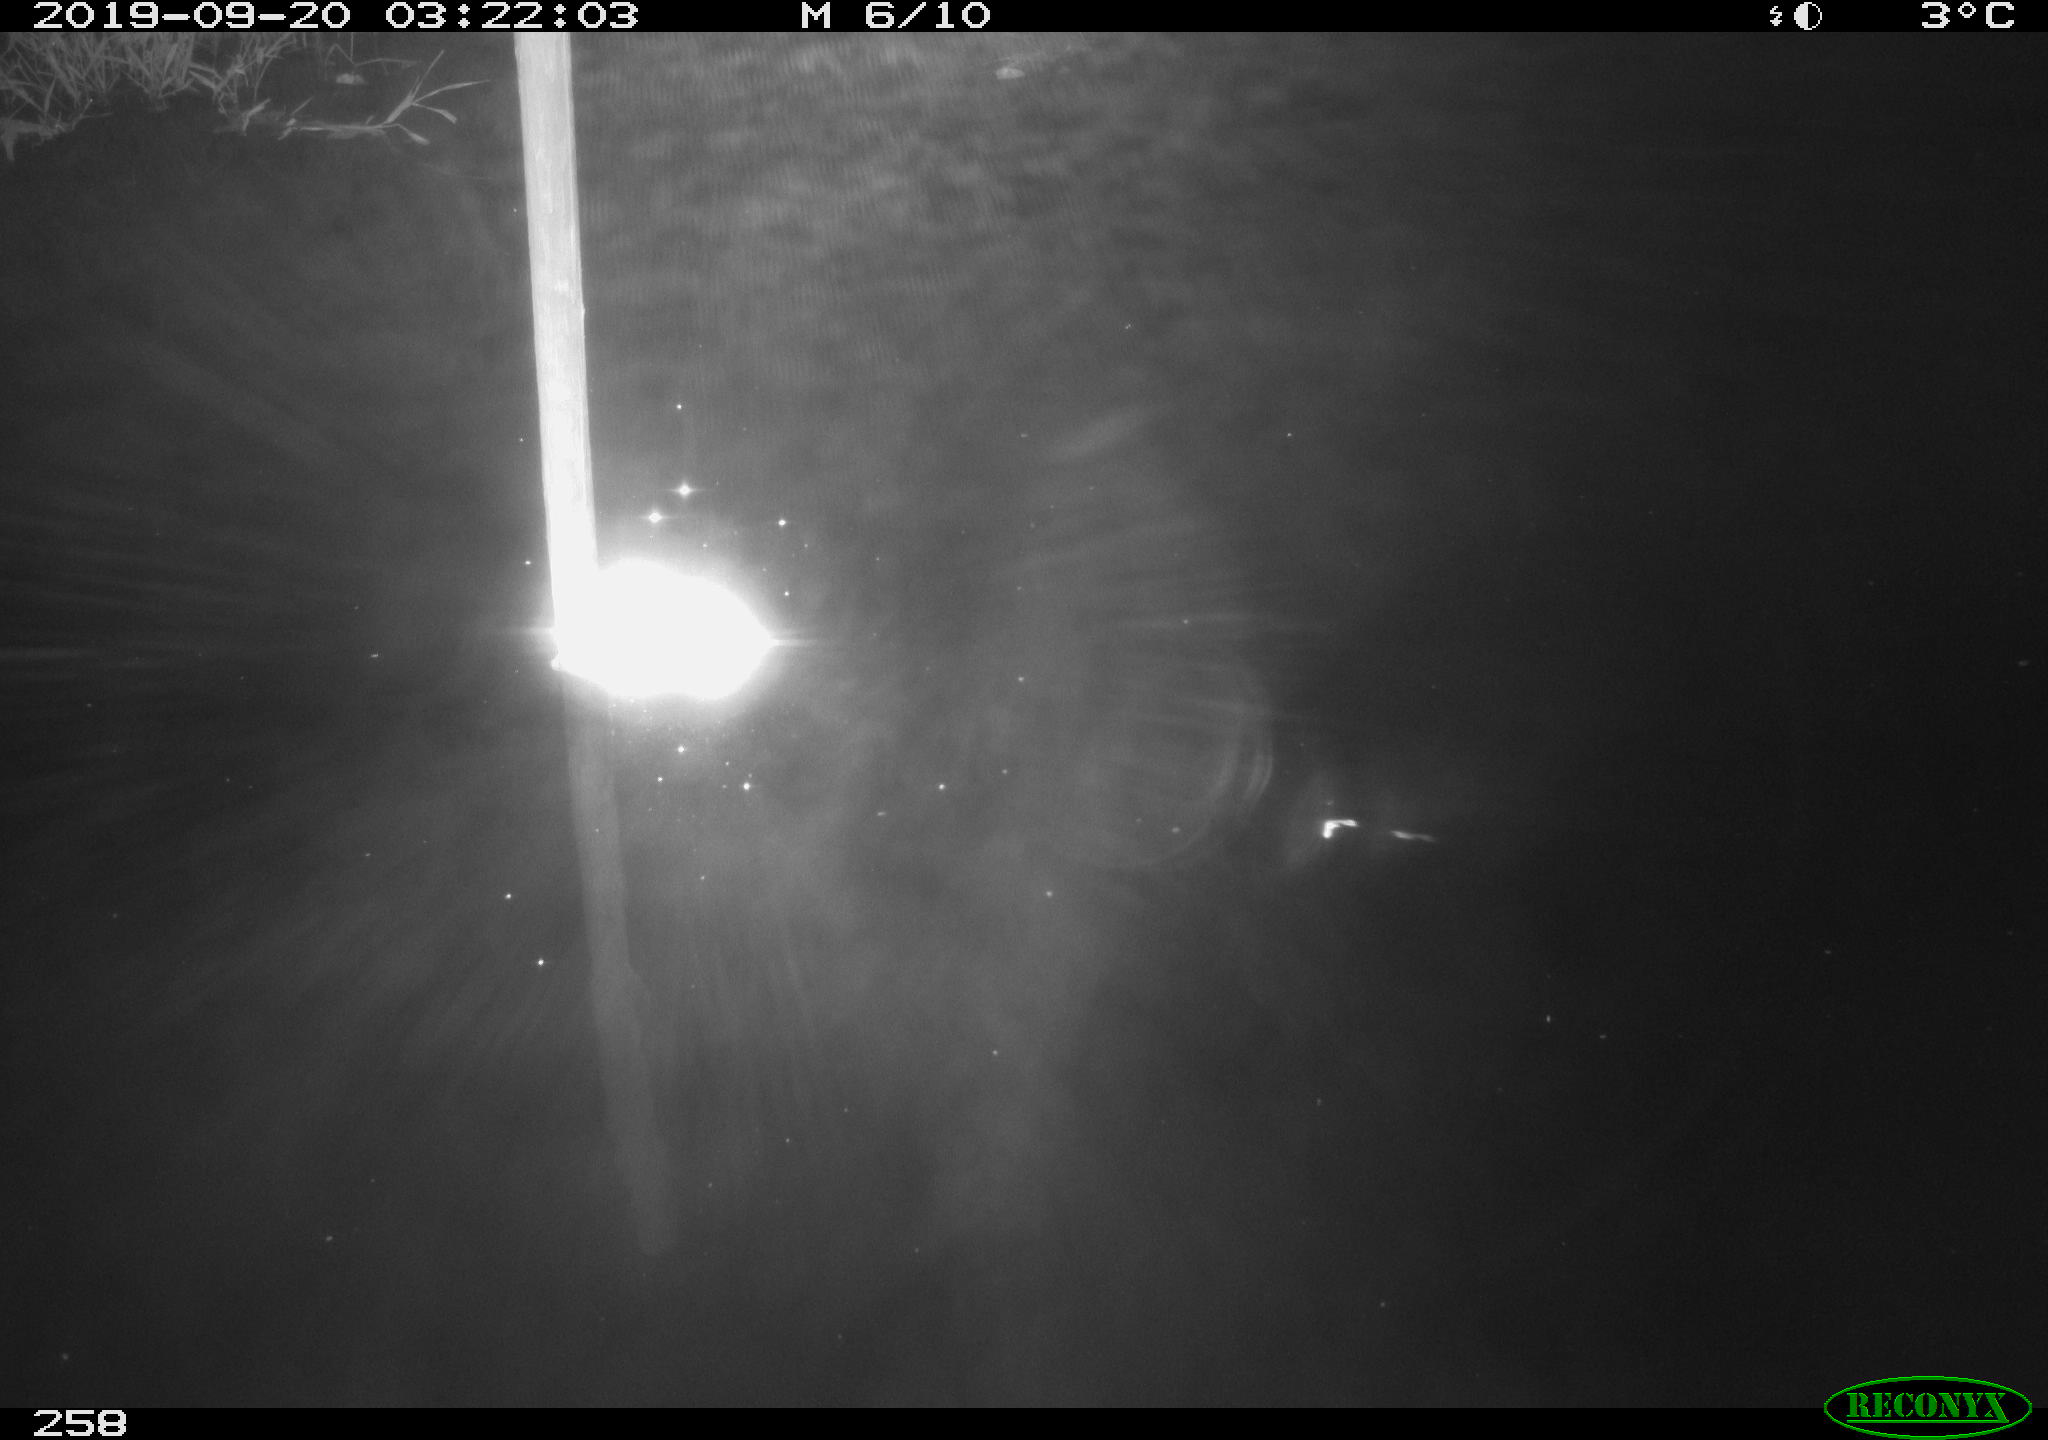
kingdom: Animalia
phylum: Chordata
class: Aves
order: Anseriformes
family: Anatidae
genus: Anas
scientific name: Anas platyrhynchos
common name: Mallard
